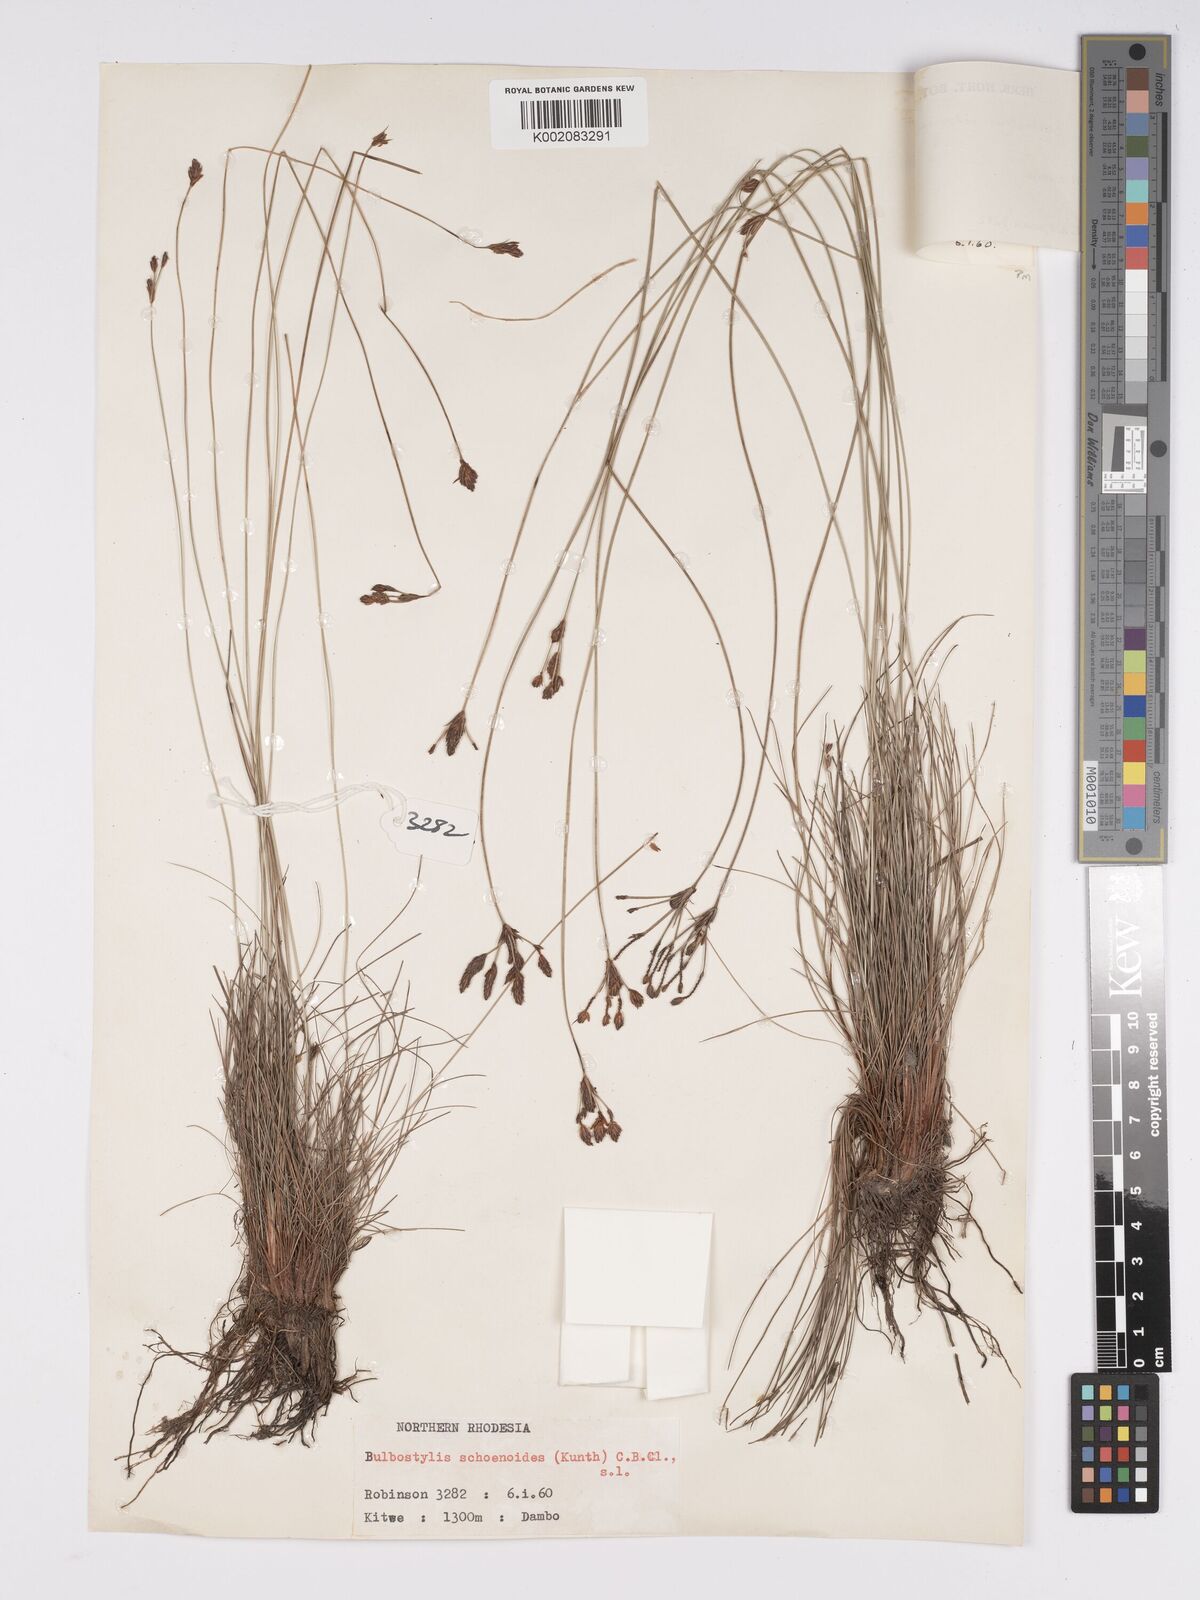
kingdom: Plantae
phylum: Tracheophyta
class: Liliopsida
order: Poales
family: Cyperaceae
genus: Bulbostylis
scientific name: Bulbostylis schoenoides
